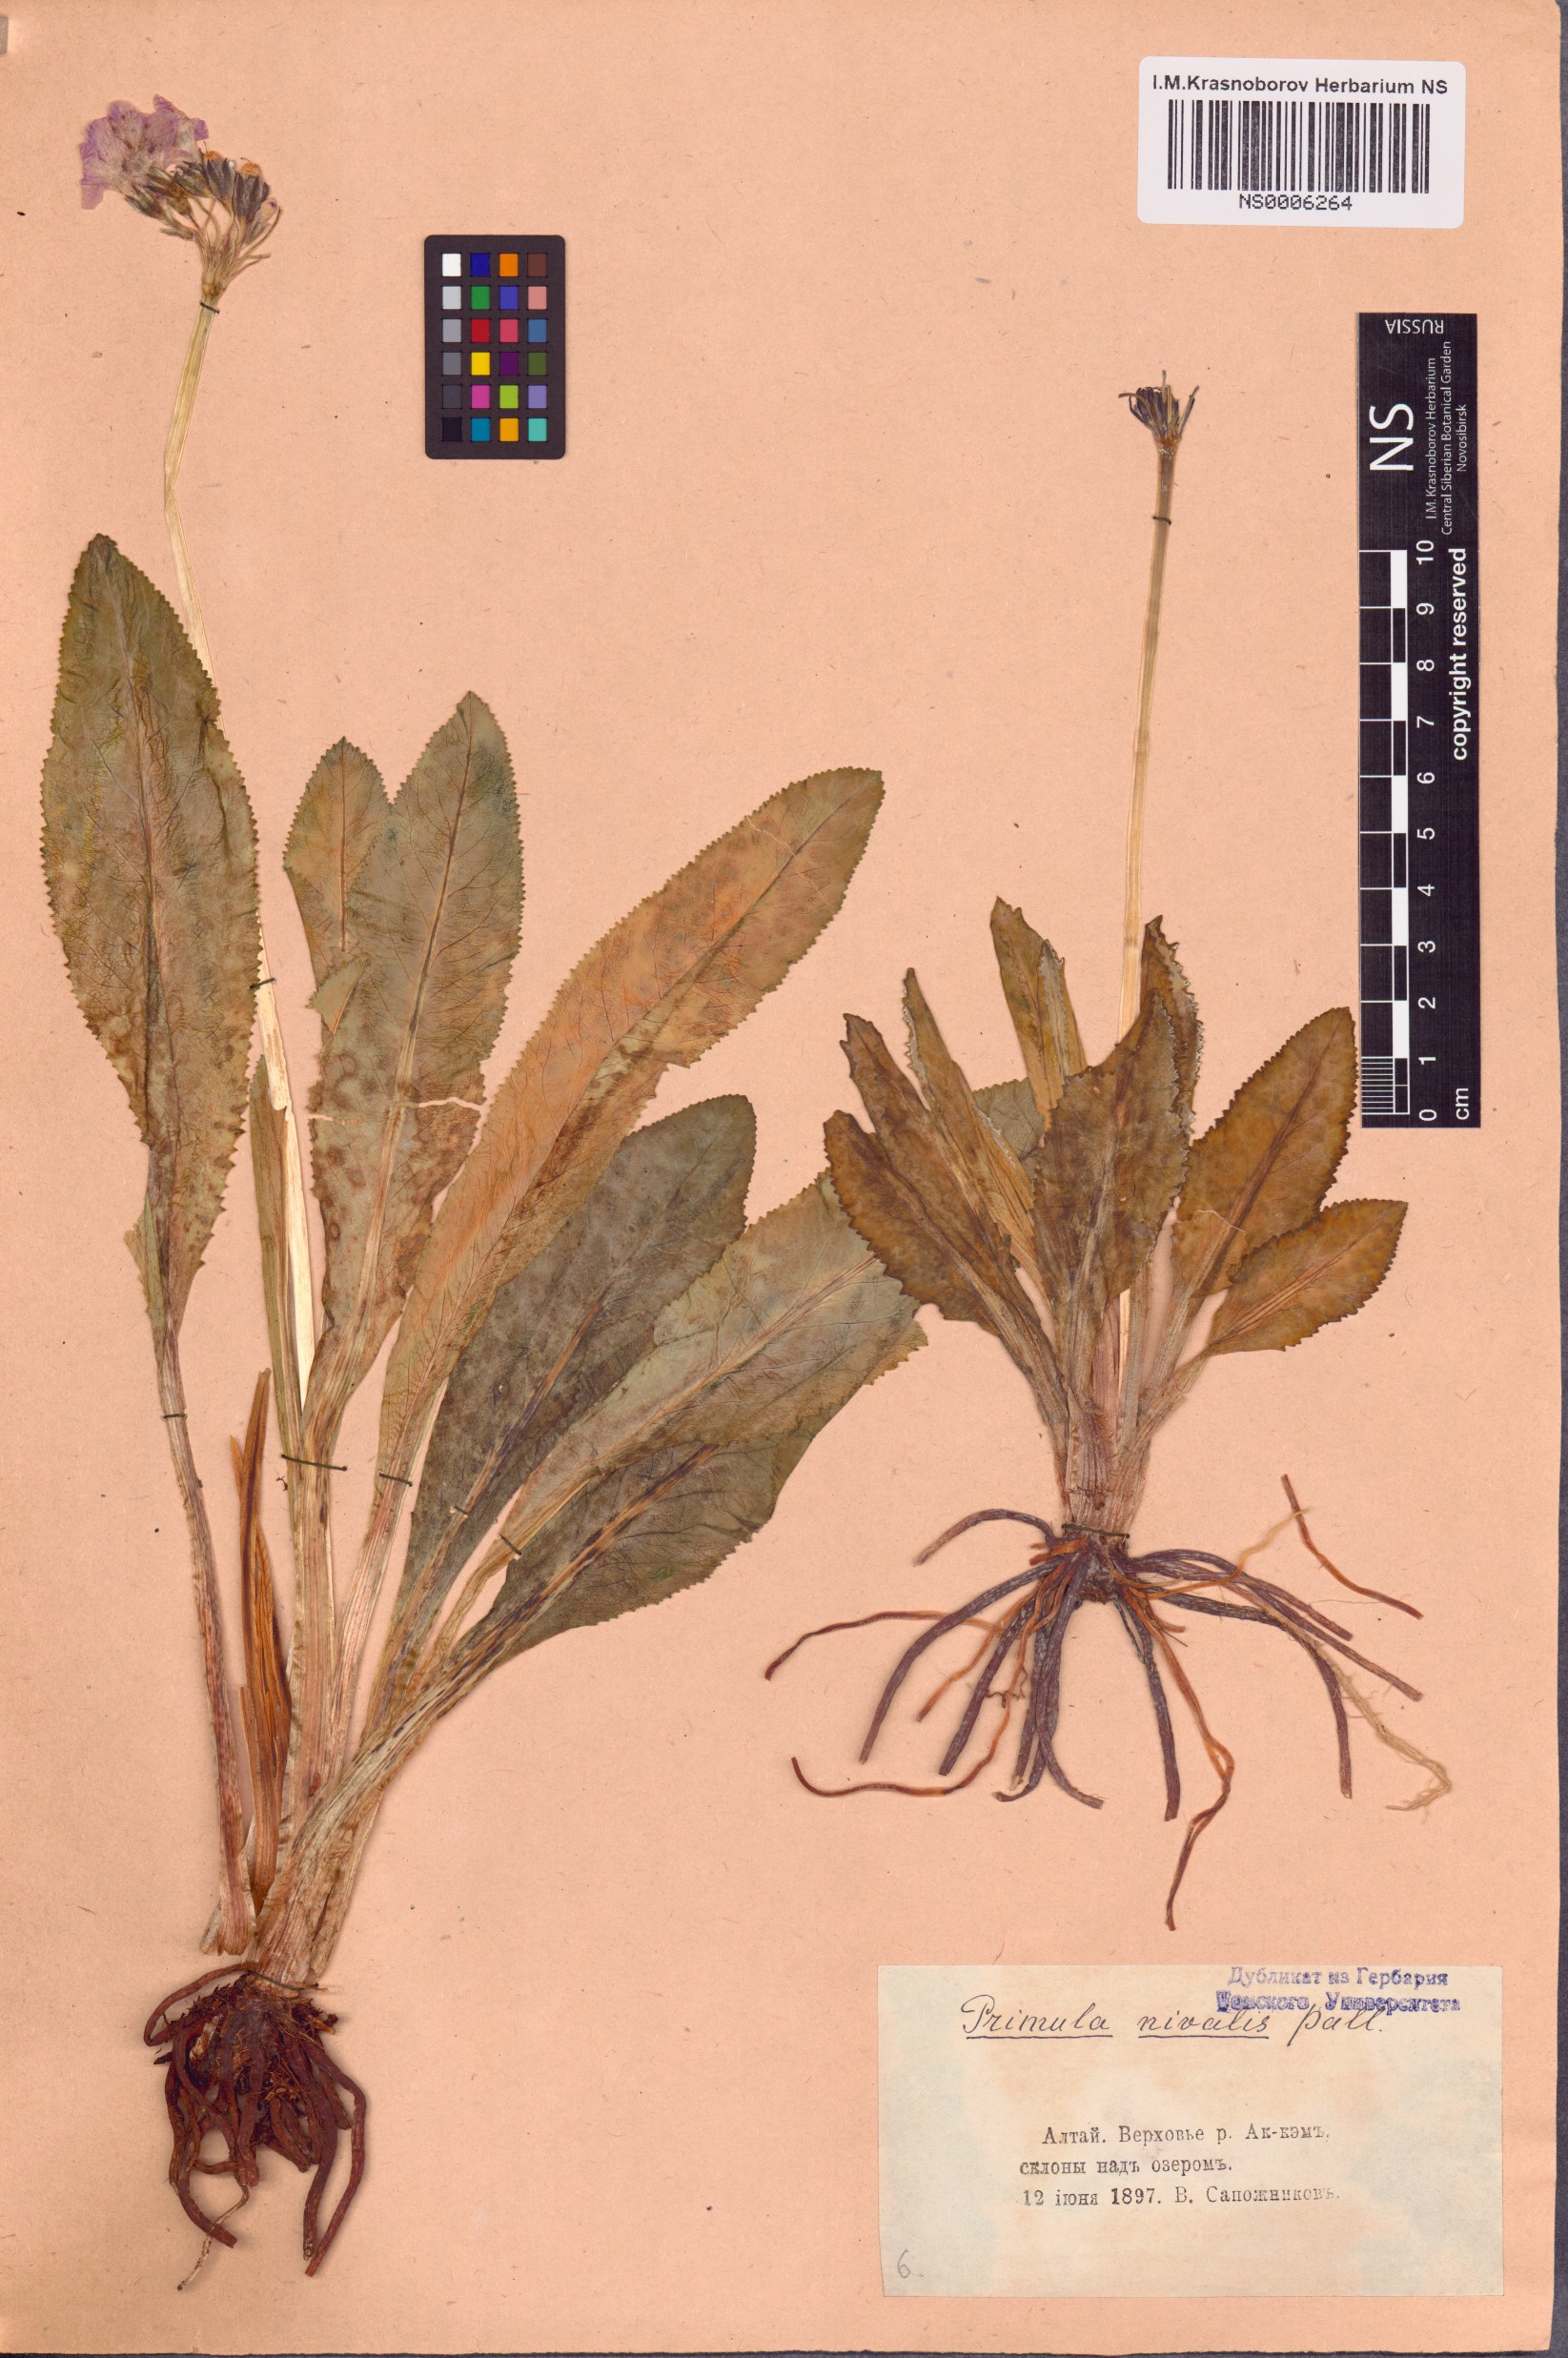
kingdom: Plantae
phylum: Tracheophyta
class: Magnoliopsida
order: Ericales
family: Primulaceae
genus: Primula
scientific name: Primula nivalis
